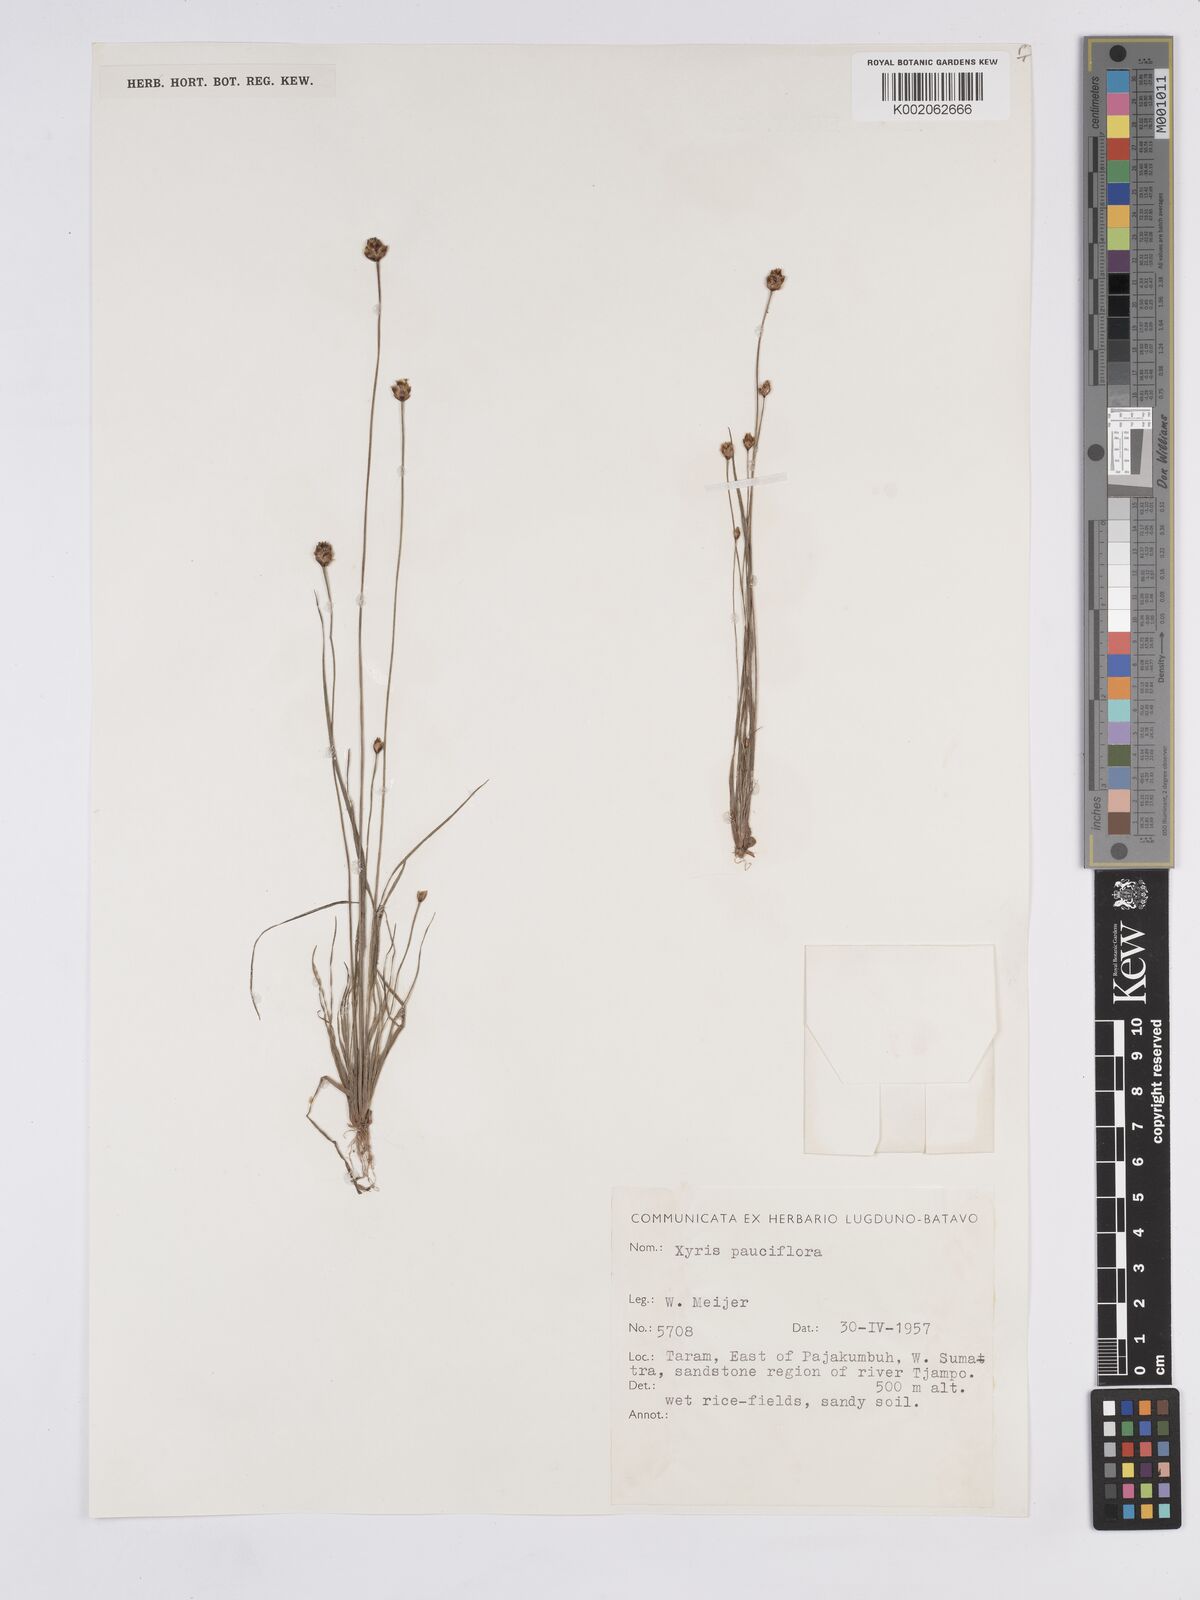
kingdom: Plantae
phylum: Tracheophyta
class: Liliopsida
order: Poales
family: Xyridaceae
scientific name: Xyridaceae
